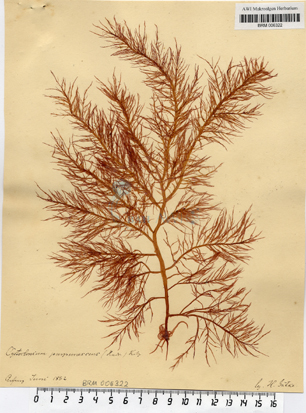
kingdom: Plantae
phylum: Rhodophyta
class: Florideophyceae
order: Gigartinales
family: Cystocloniaceae
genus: Cystoclonium
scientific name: Cystoclonium purpureum
